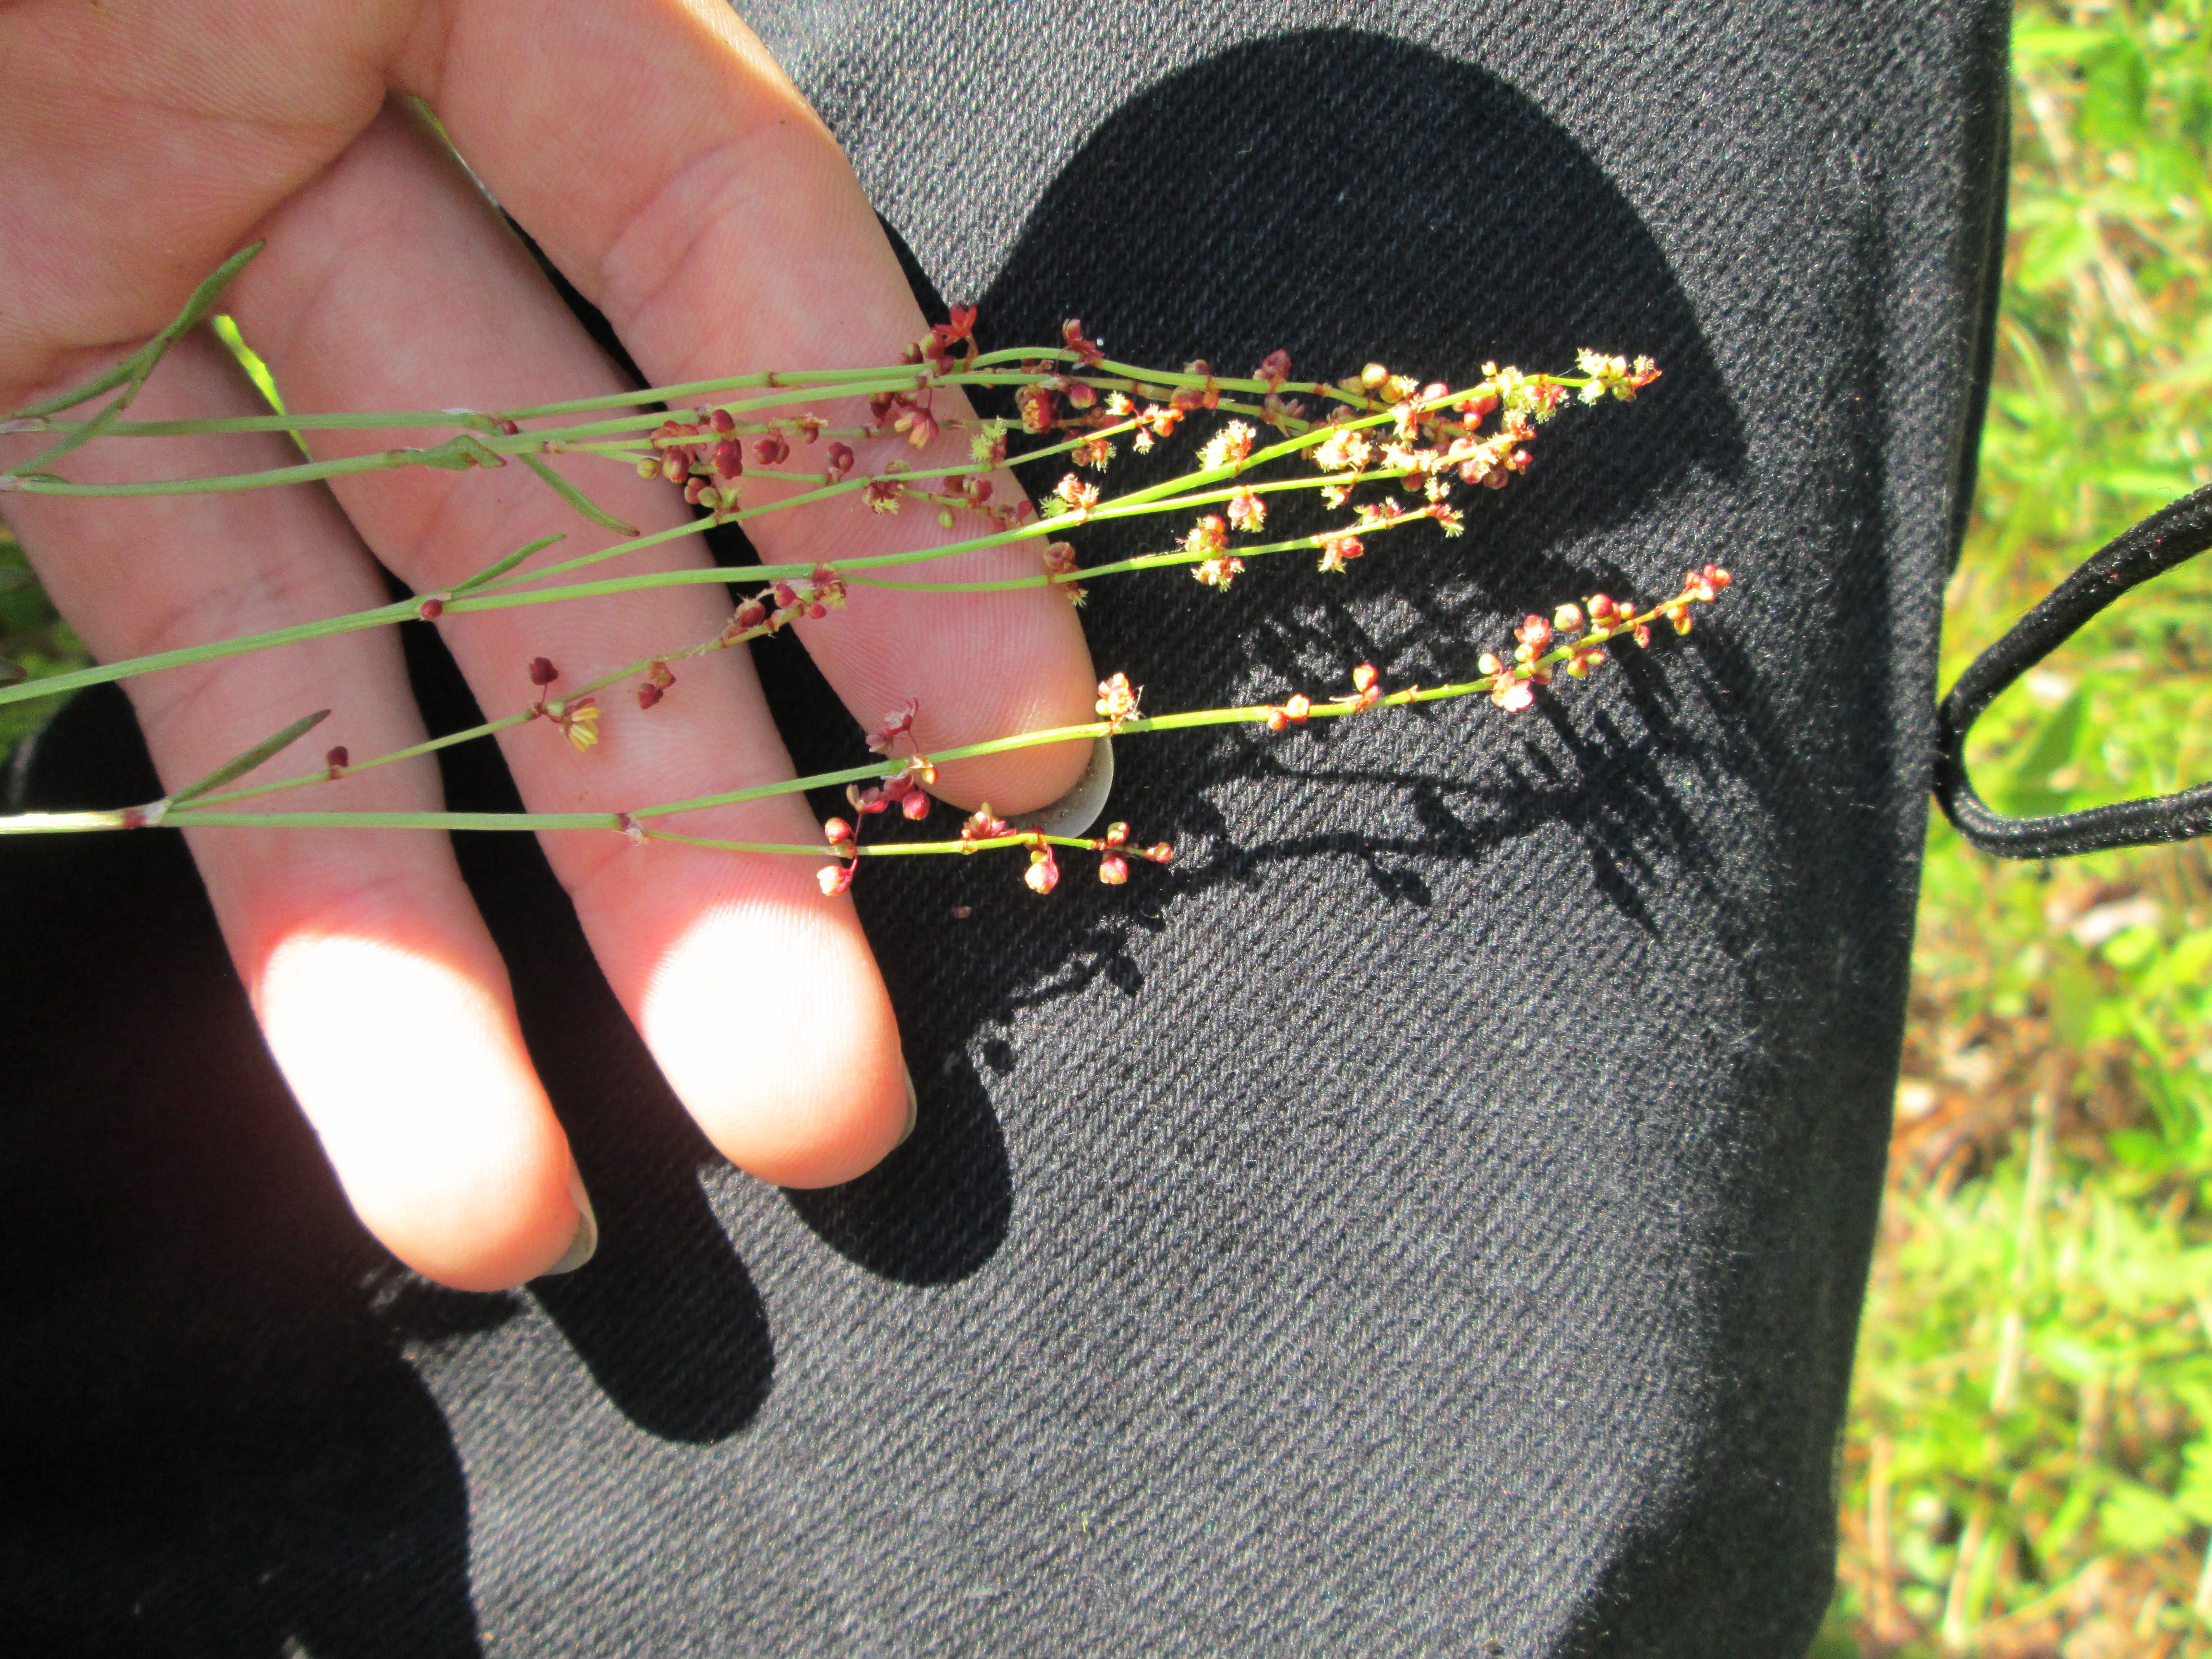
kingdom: Plantae
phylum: Tracheophyta
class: Magnoliopsida
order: Caryophyllales
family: Polygonaceae
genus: Rumex
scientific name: Rumex acetosella
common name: Common sheep sorrel
